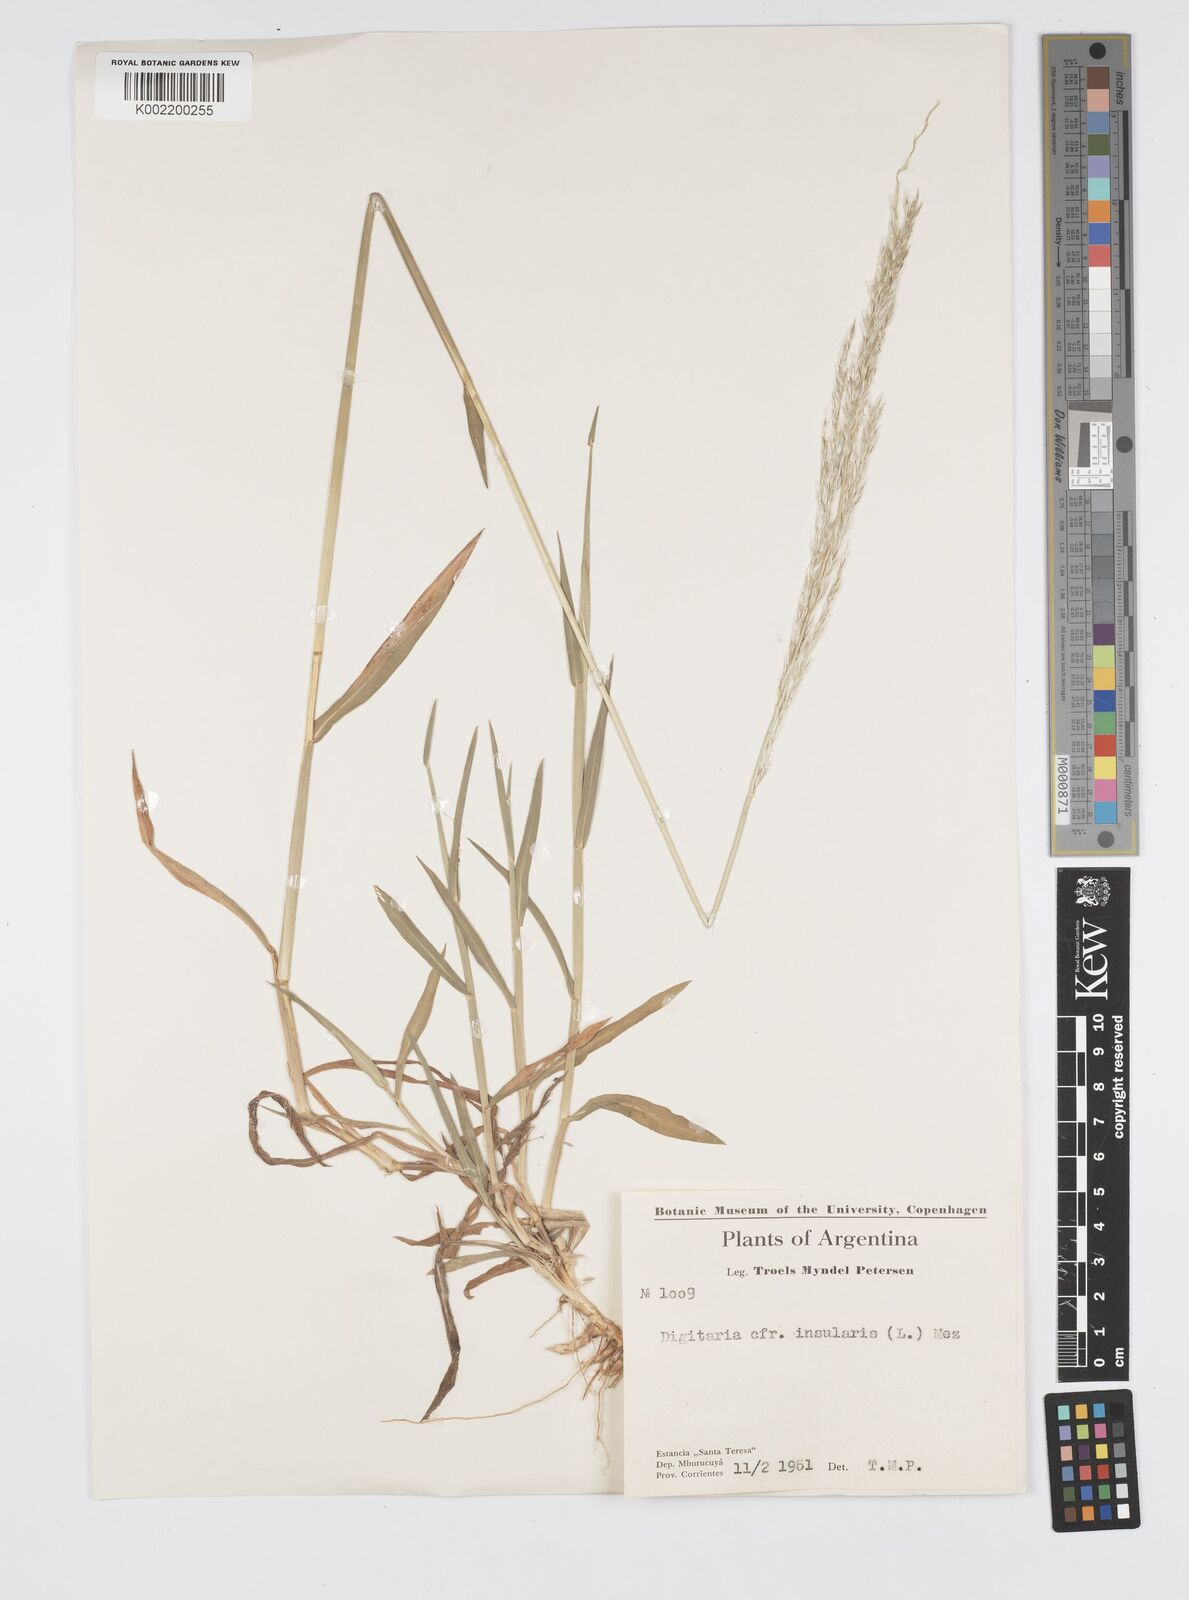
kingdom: Plantae
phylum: Tracheophyta
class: Liliopsida
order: Poales
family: Poaceae
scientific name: Poaceae
